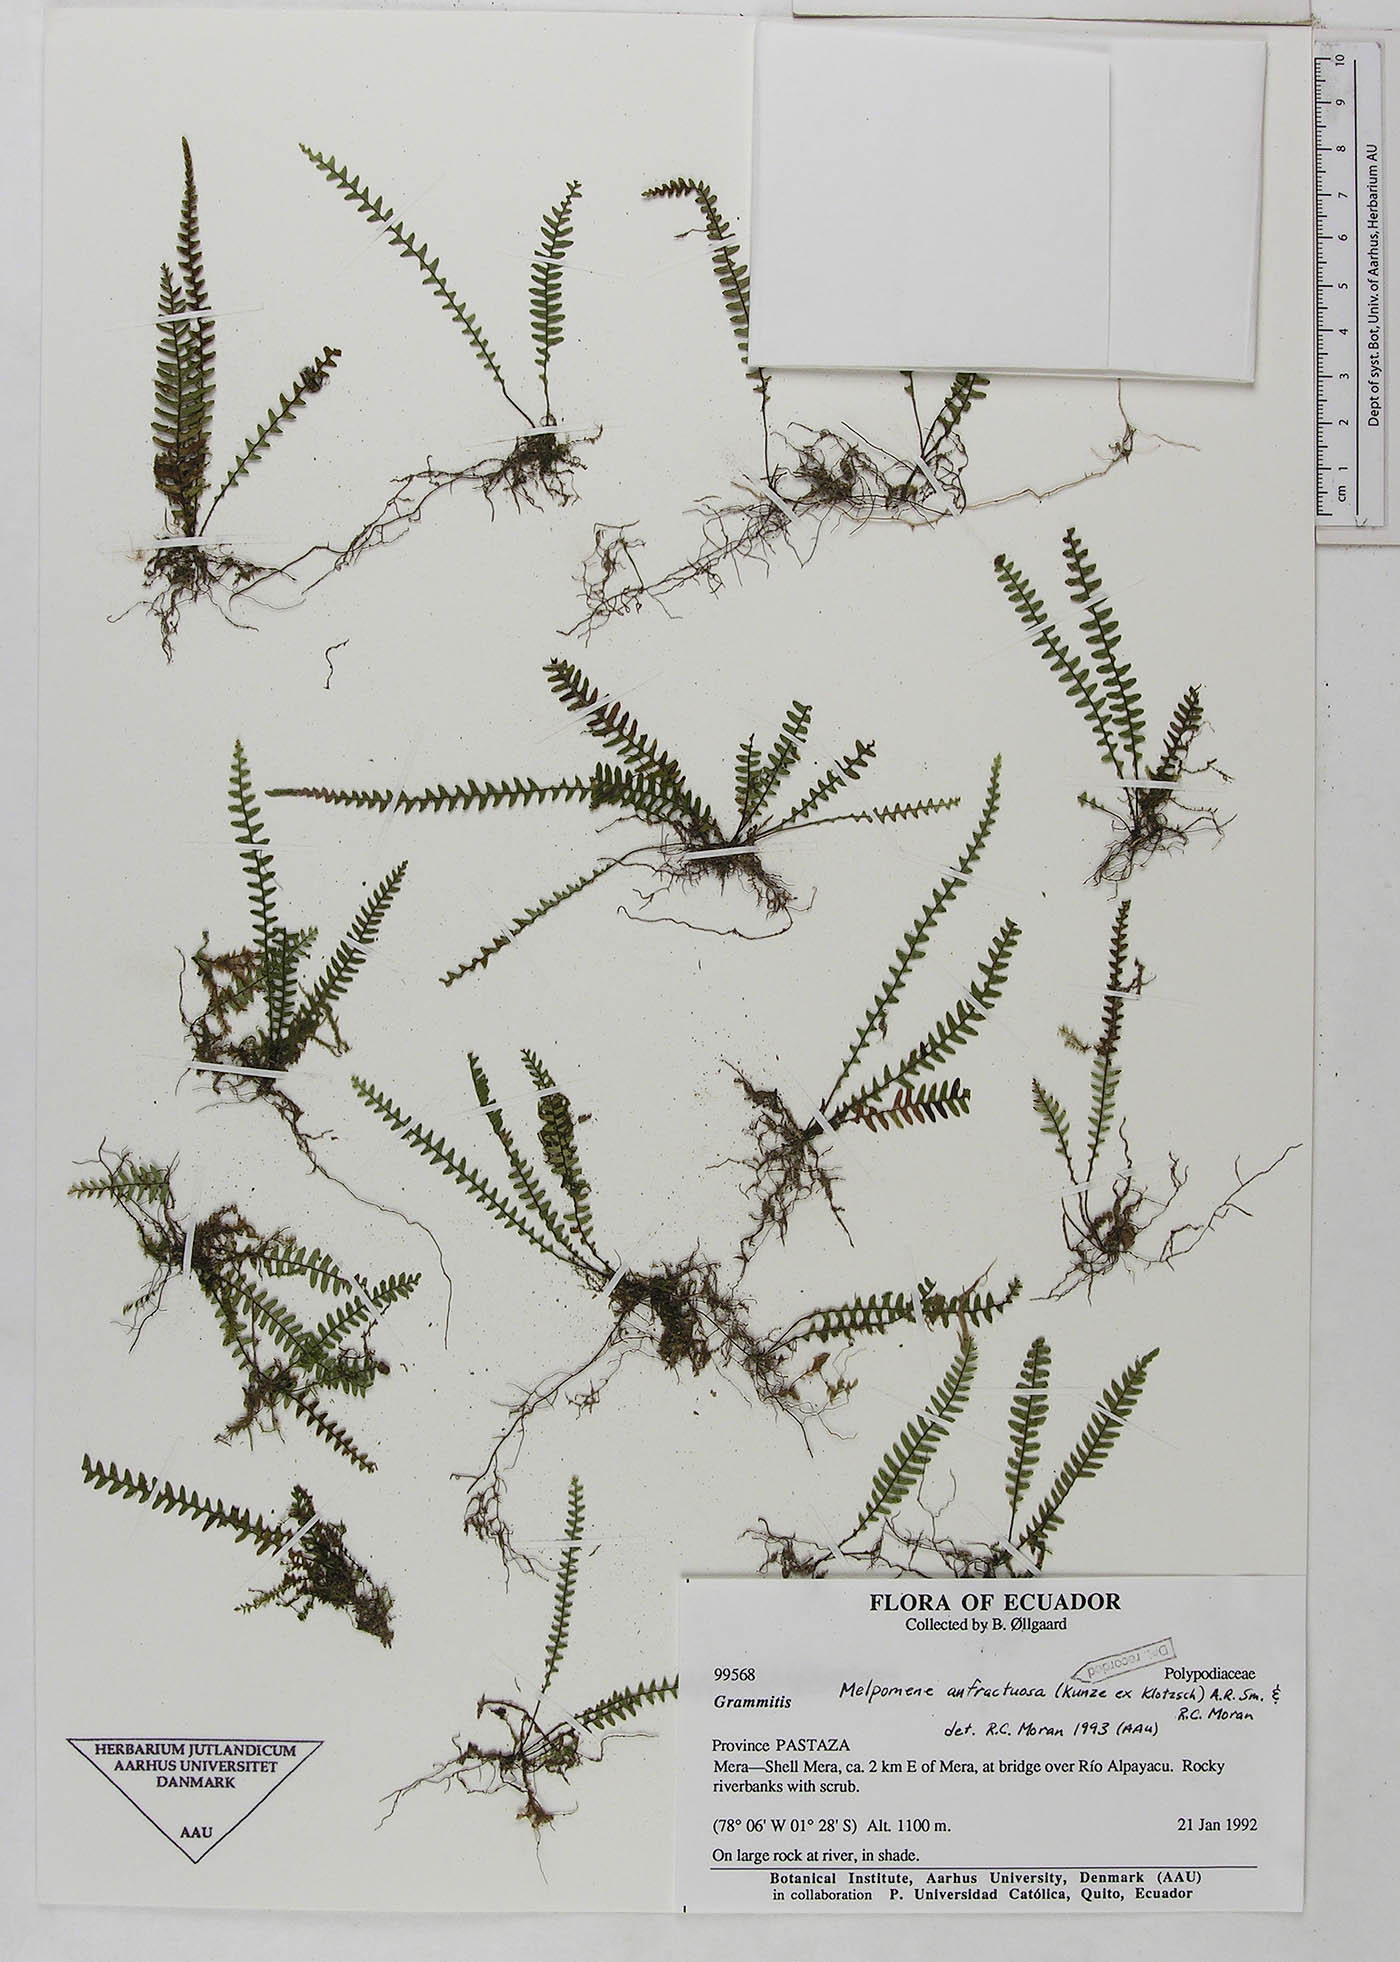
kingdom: Plantae
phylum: Tracheophyta
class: Polypodiopsida
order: Polypodiales
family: Polypodiaceae
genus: Ascogrammitis
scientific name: Ascogrammitis anfractuosa
